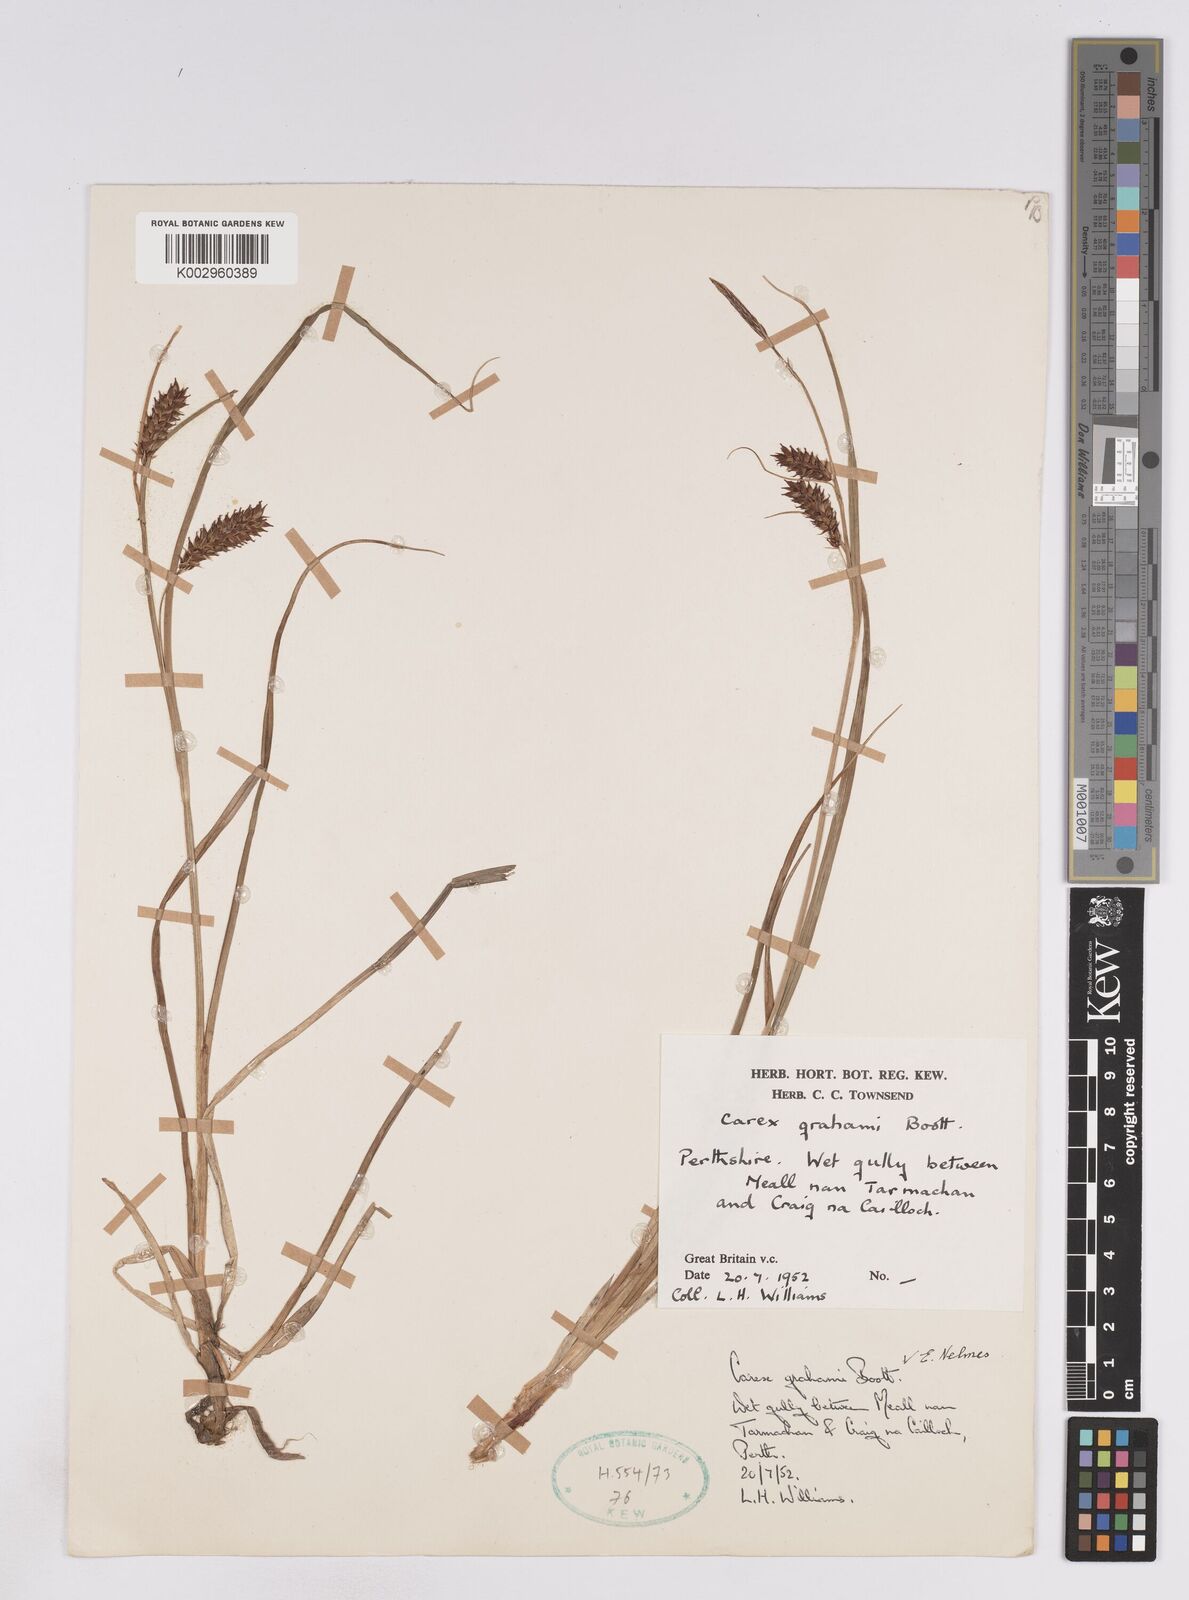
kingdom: Plantae
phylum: Tracheophyta
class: Liliopsida
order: Poales
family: Cyperaceae
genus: Carex
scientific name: Carex rostrata
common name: Bottle sedge
